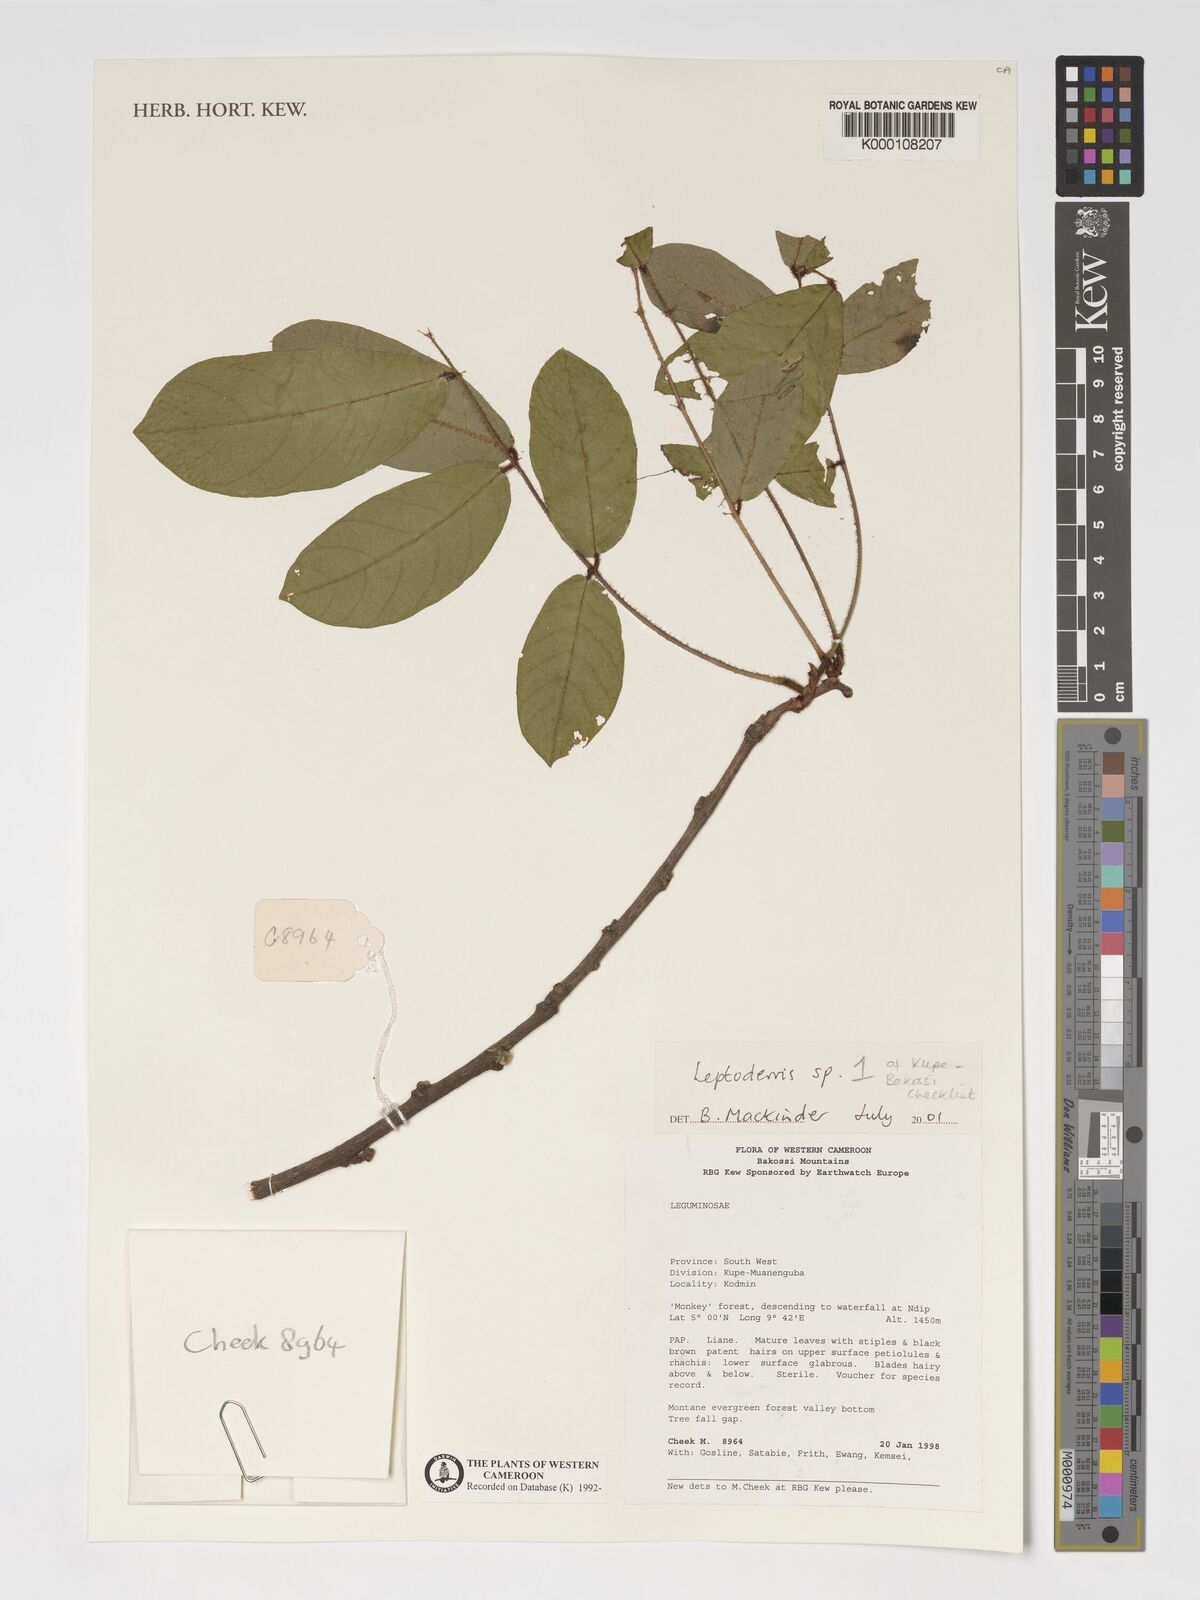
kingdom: Plantae
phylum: Tracheophyta
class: Magnoliopsida
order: Fabales
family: Fabaceae
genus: Leptoderris
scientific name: Leptoderris
